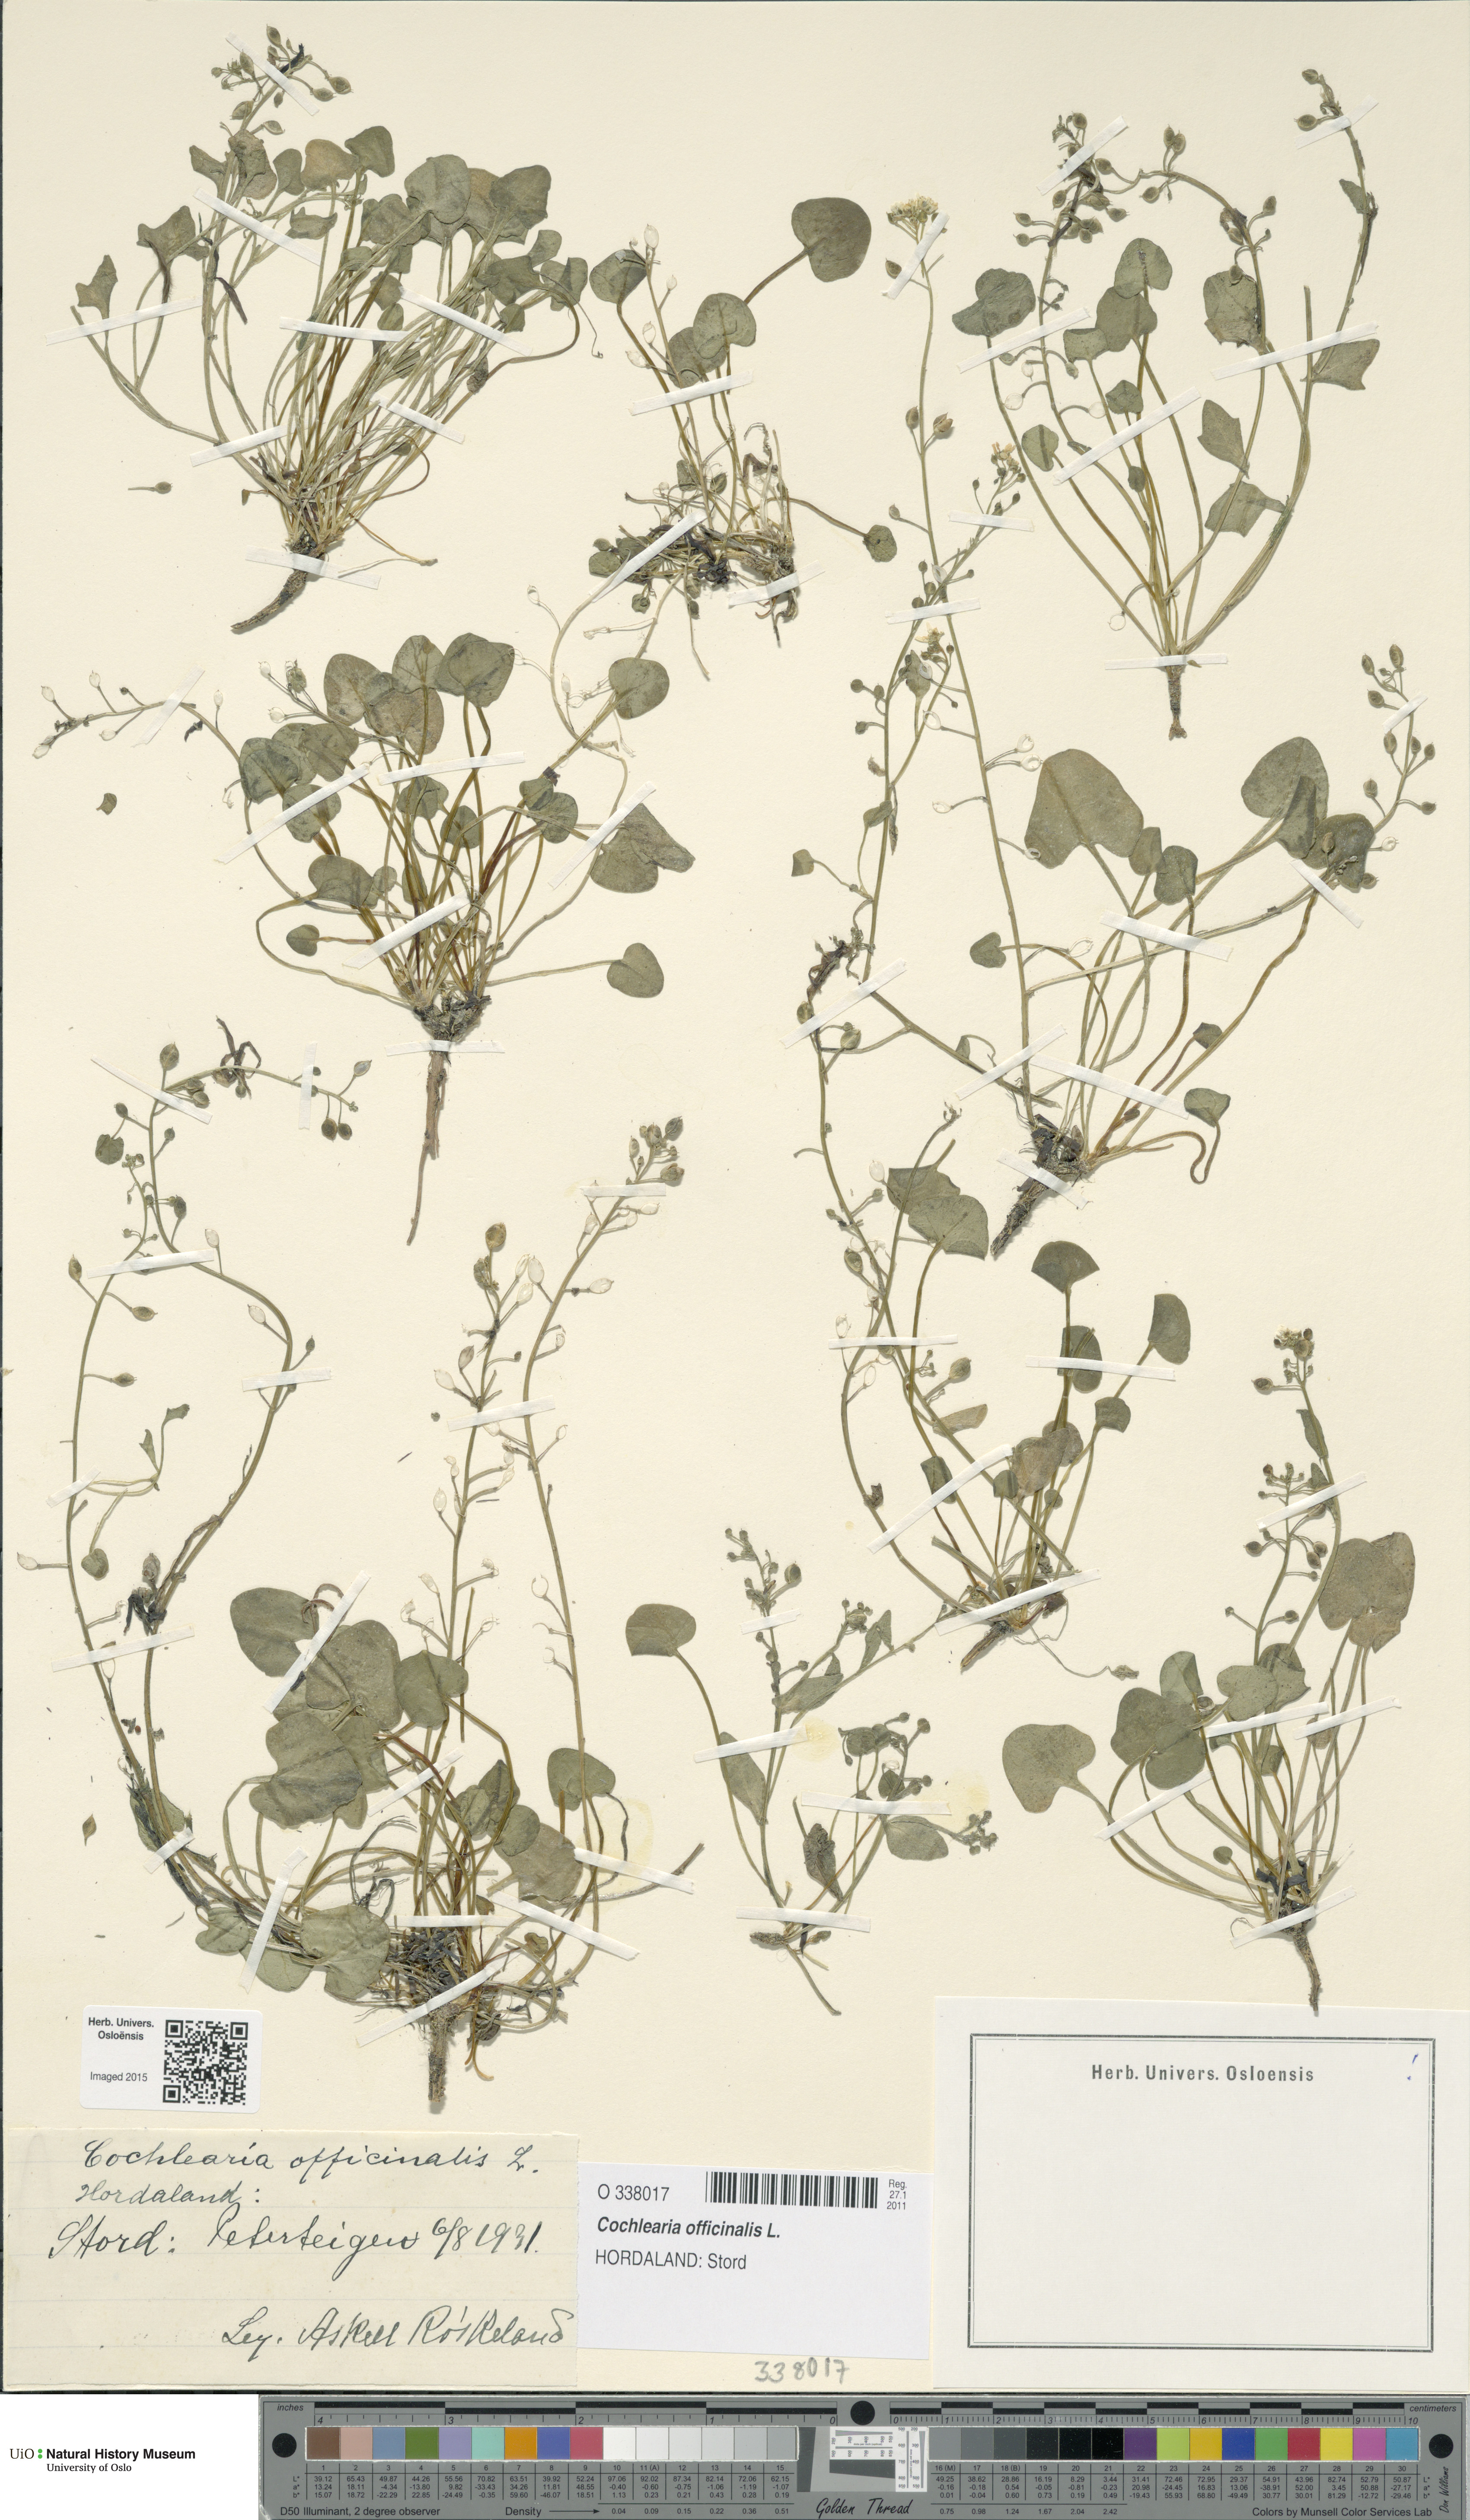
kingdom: Plantae
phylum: Tracheophyta
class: Magnoliopsida
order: Brassicales
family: Brassicaceae
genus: Cochlearia
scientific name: Cochlearia officinalis
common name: Scurvy-grass
